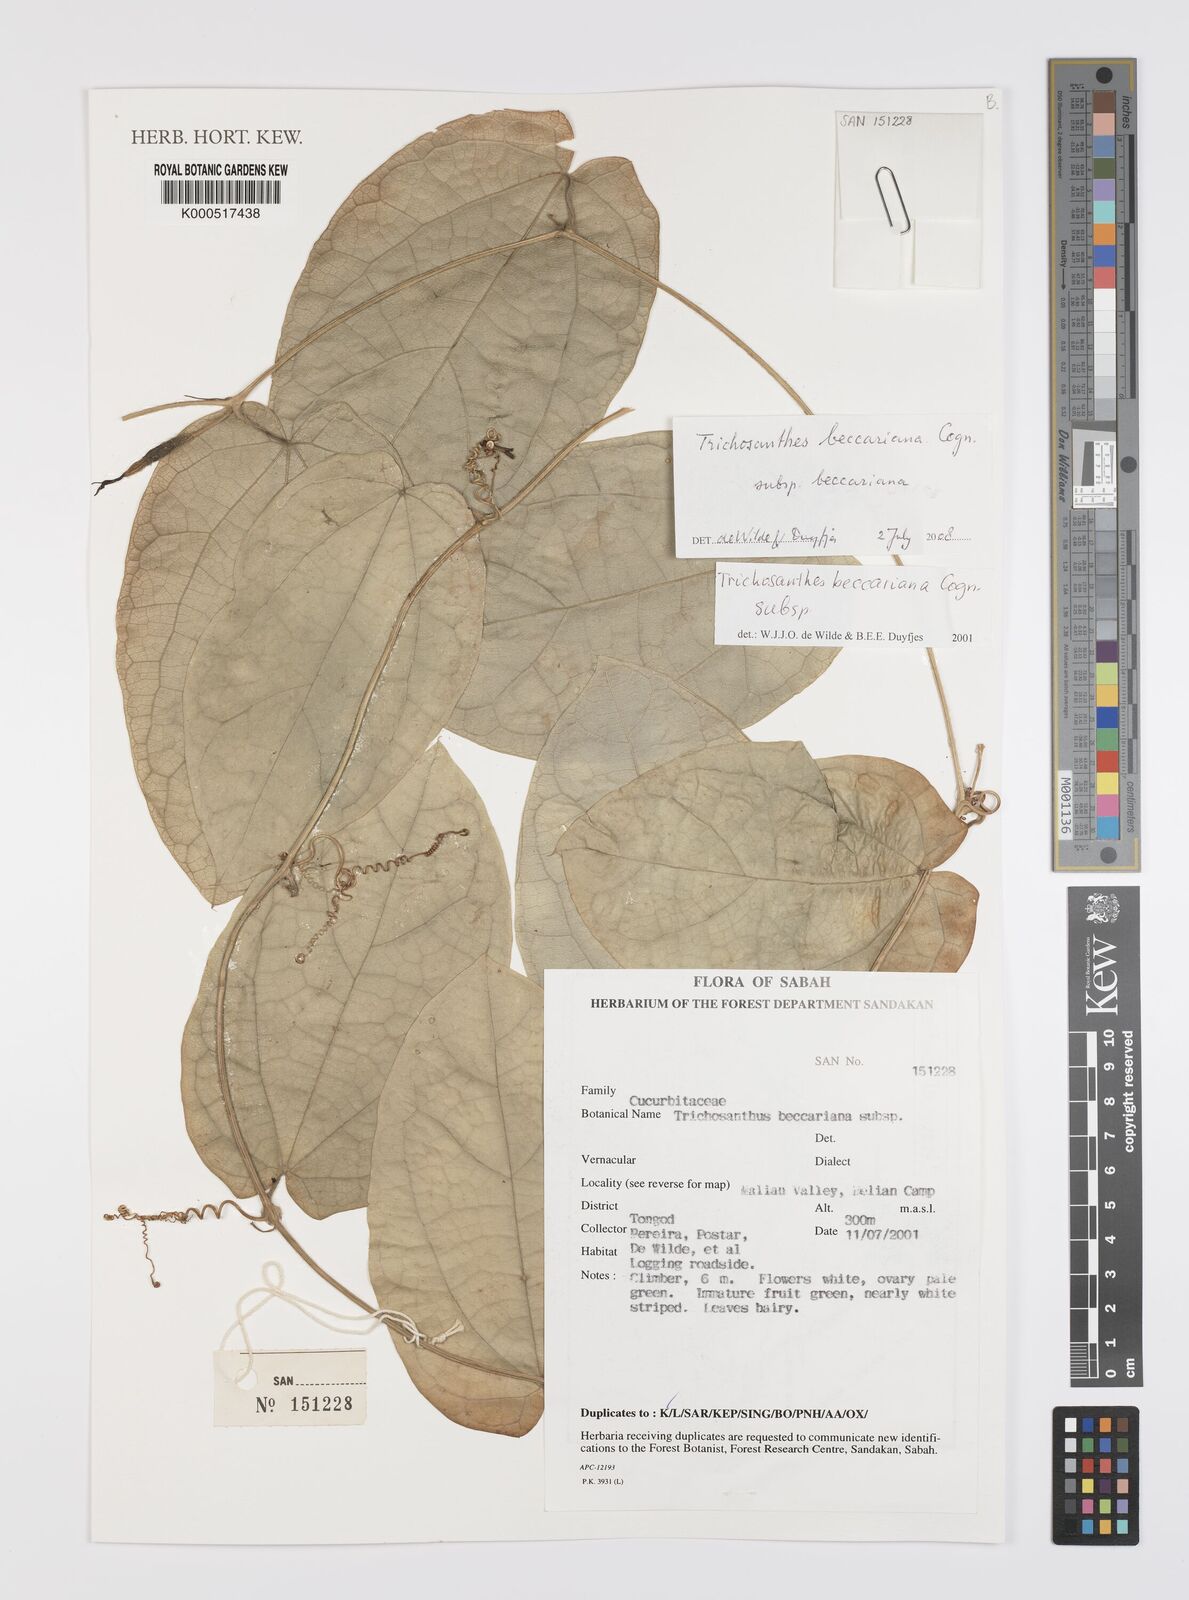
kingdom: Plantae
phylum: Tracheophyta
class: Magnoliopsida
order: Cucurbitales
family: Cucurbitaceae
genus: Trichosanthes
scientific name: Trichosanthes beccariana
